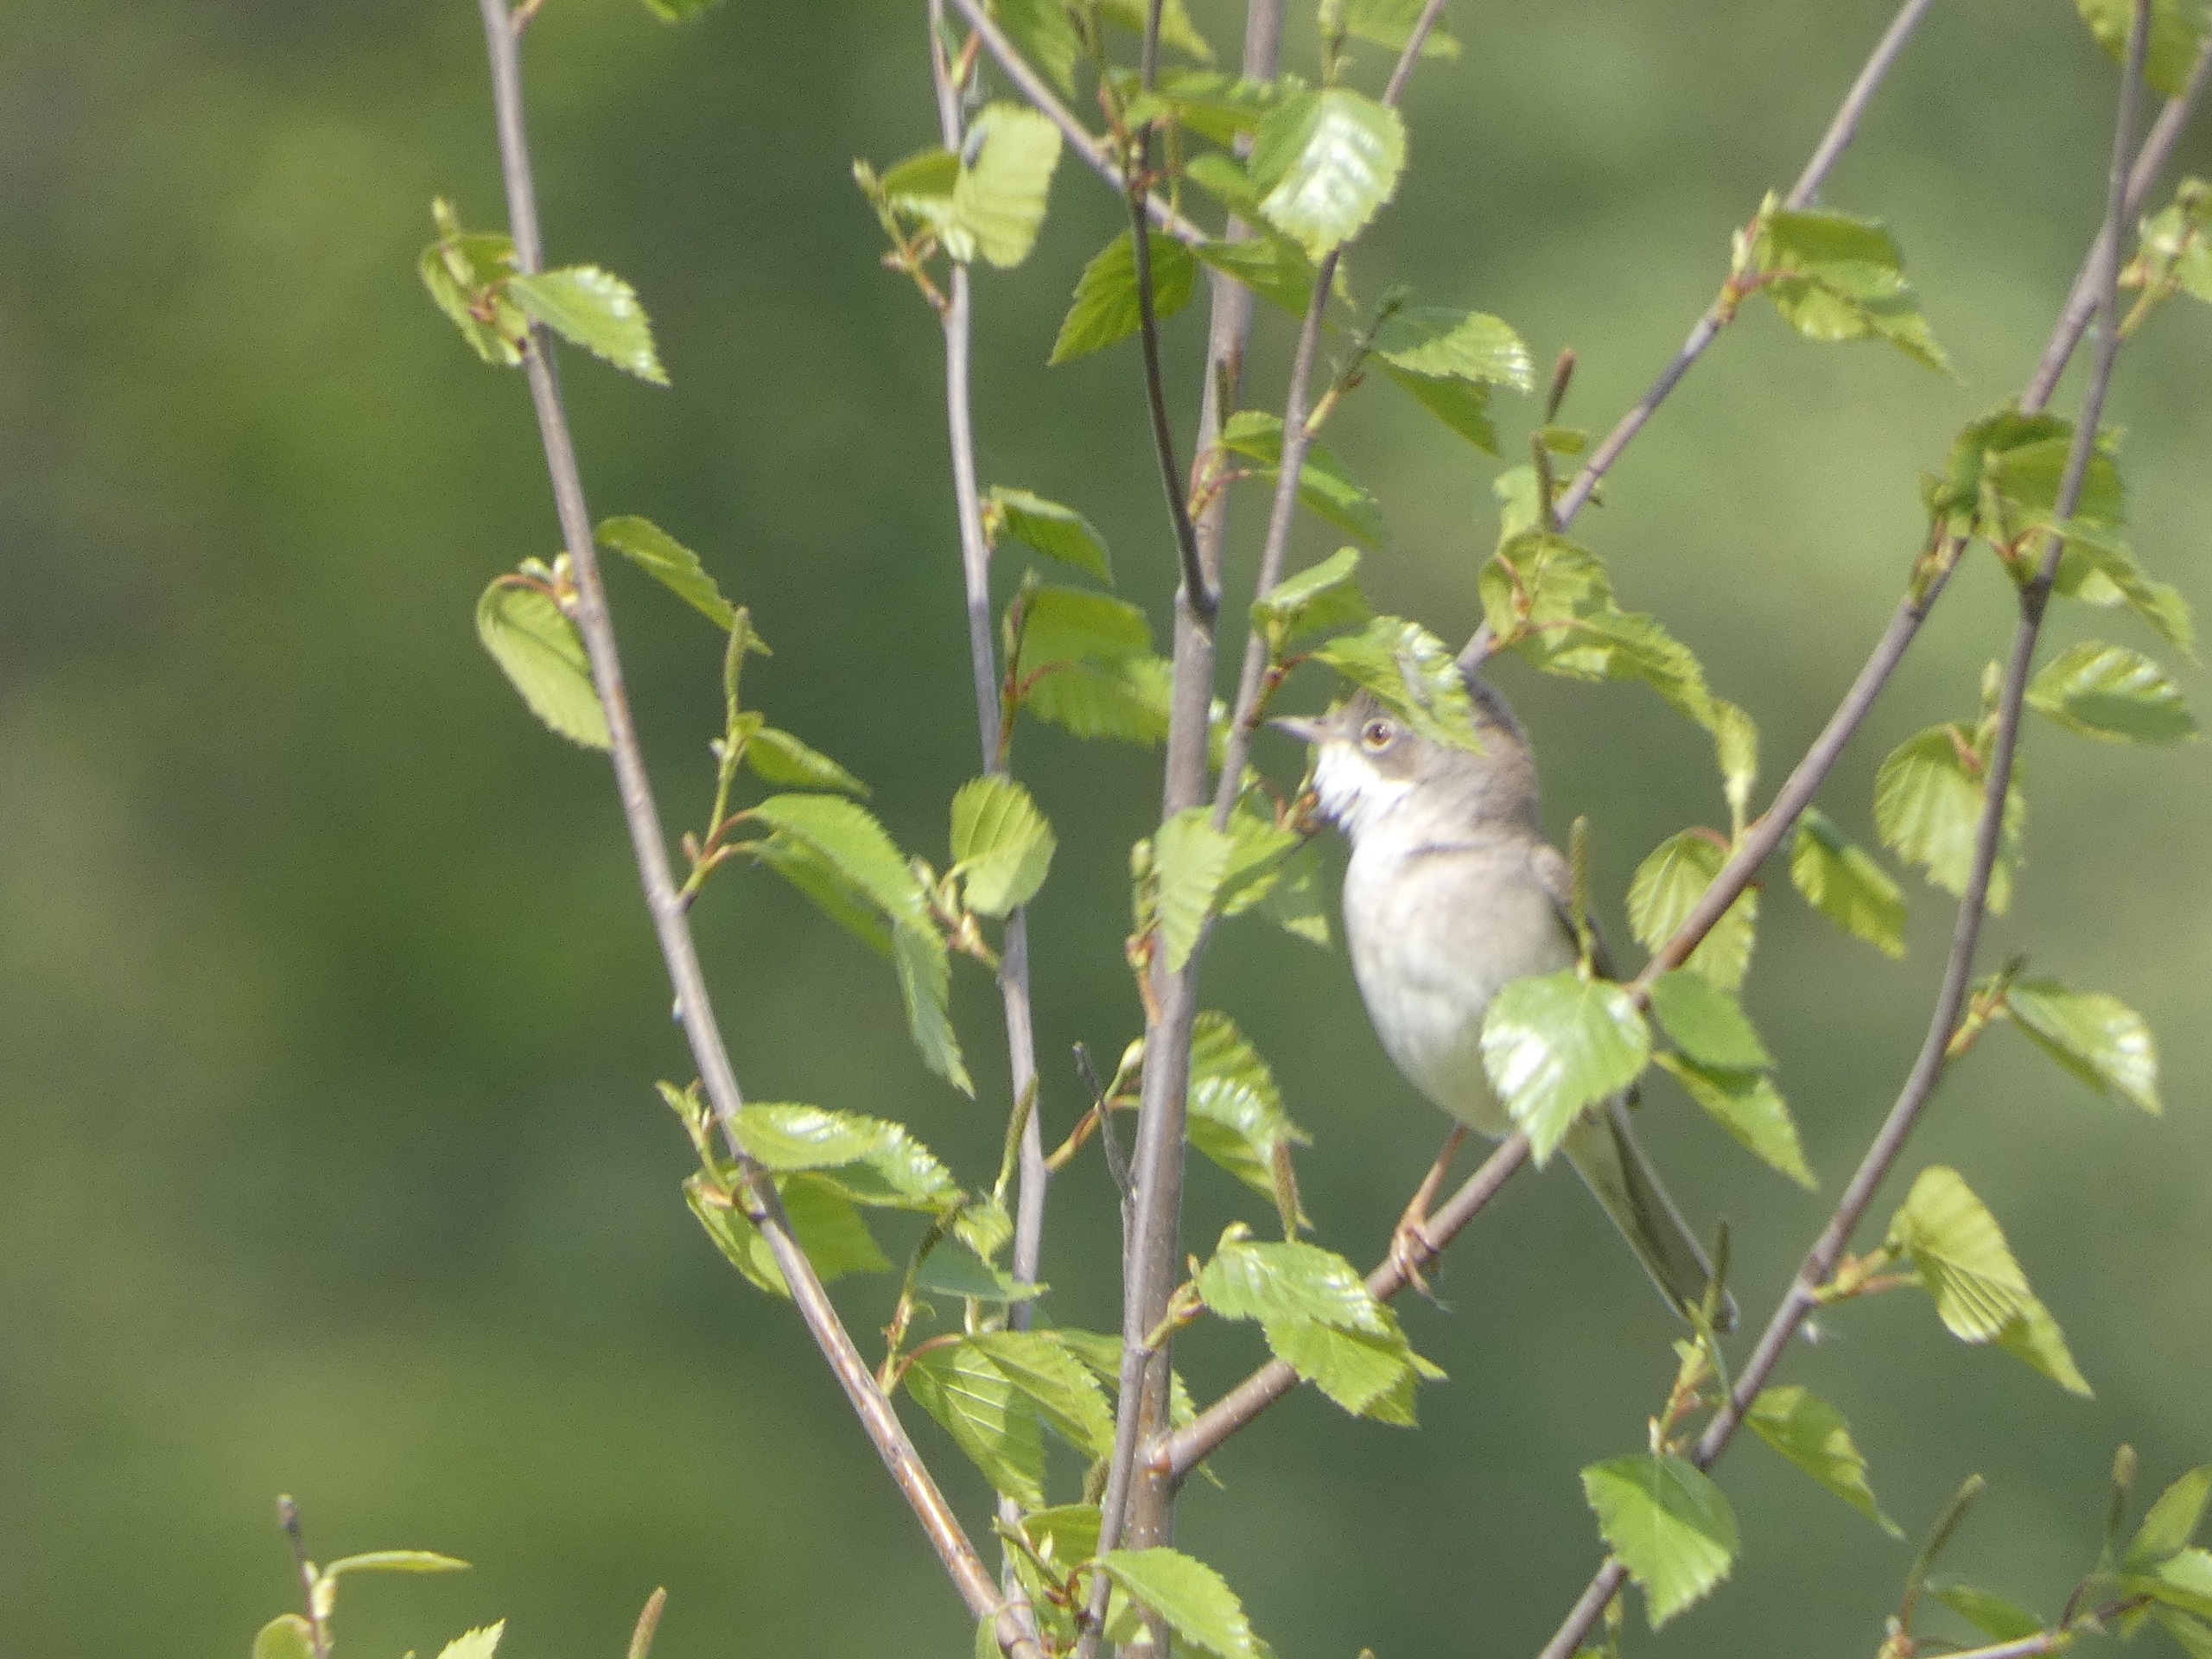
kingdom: Animalia
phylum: Chordata
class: Aves
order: Passeriformes
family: Sylviidae
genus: Sylvia
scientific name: Sylvia communis
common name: Tornsanger
